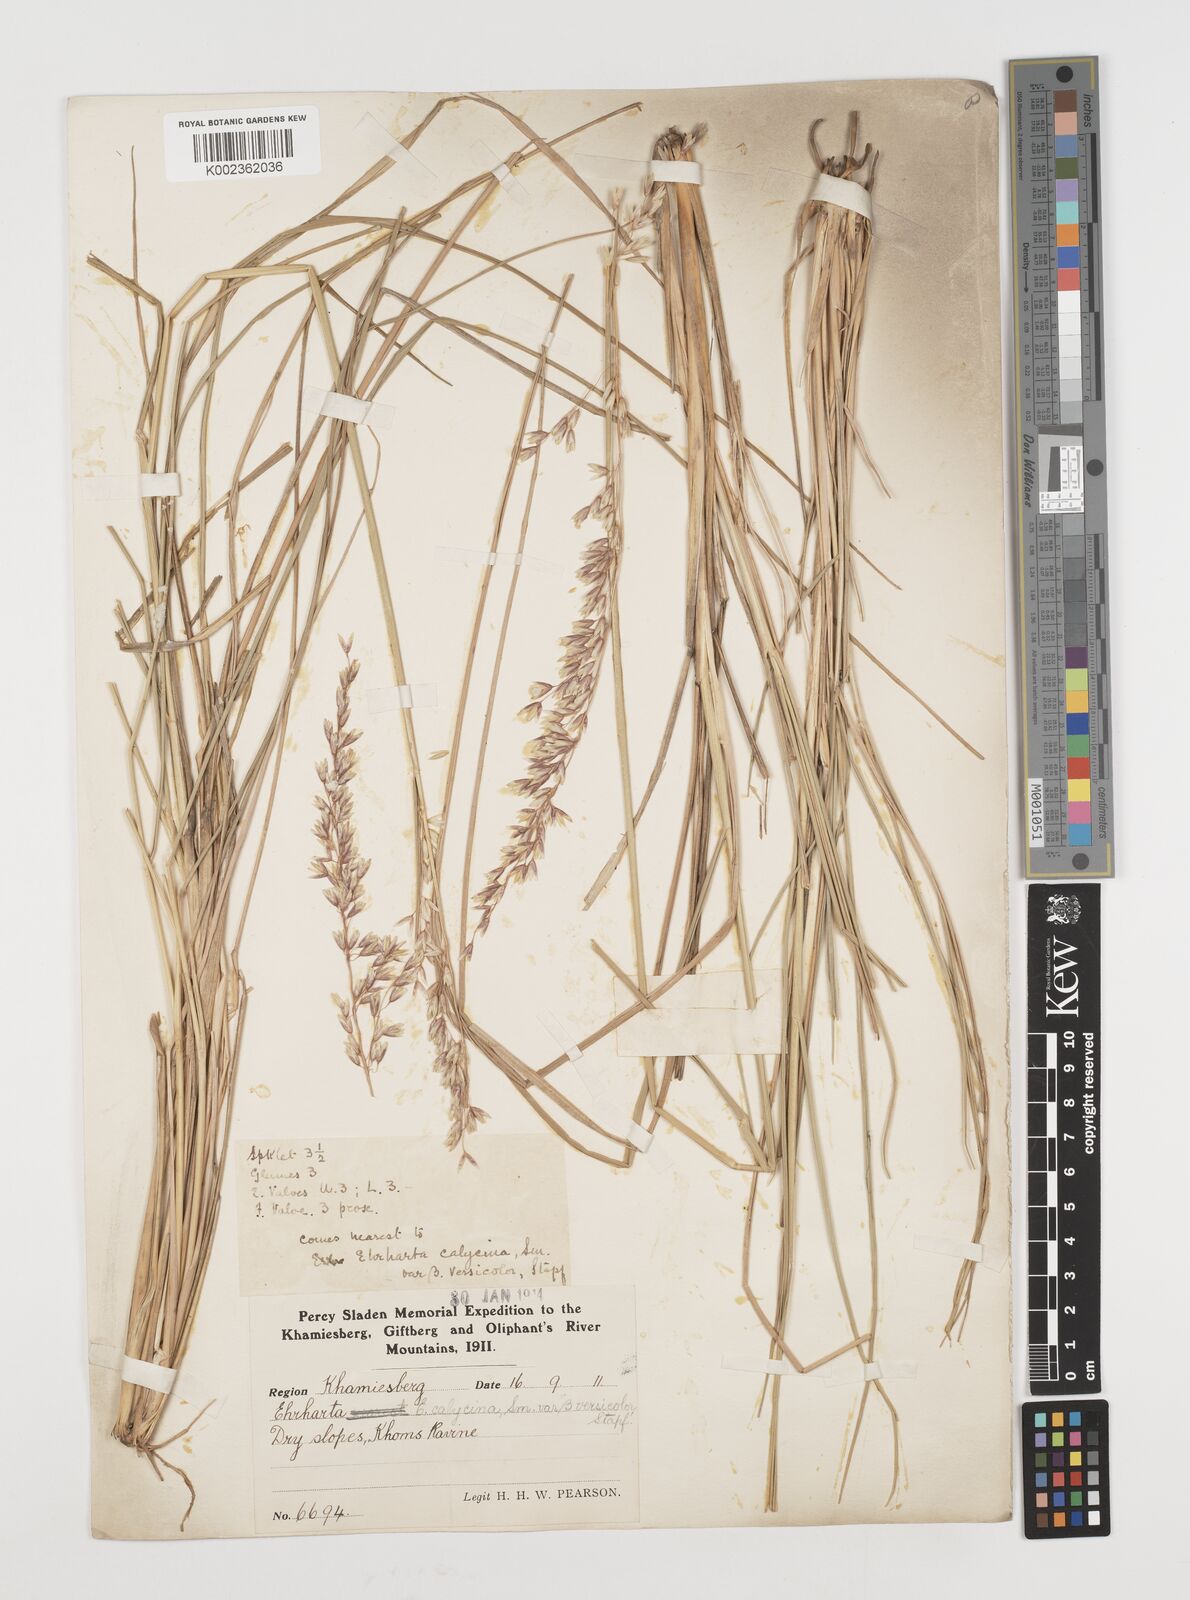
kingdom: Plantae
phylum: Tracheophyta
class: Liliopsida
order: Poales
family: Poaceae
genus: Ehrharta
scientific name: Ehrharta calycina
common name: Perennial veldtgrass
